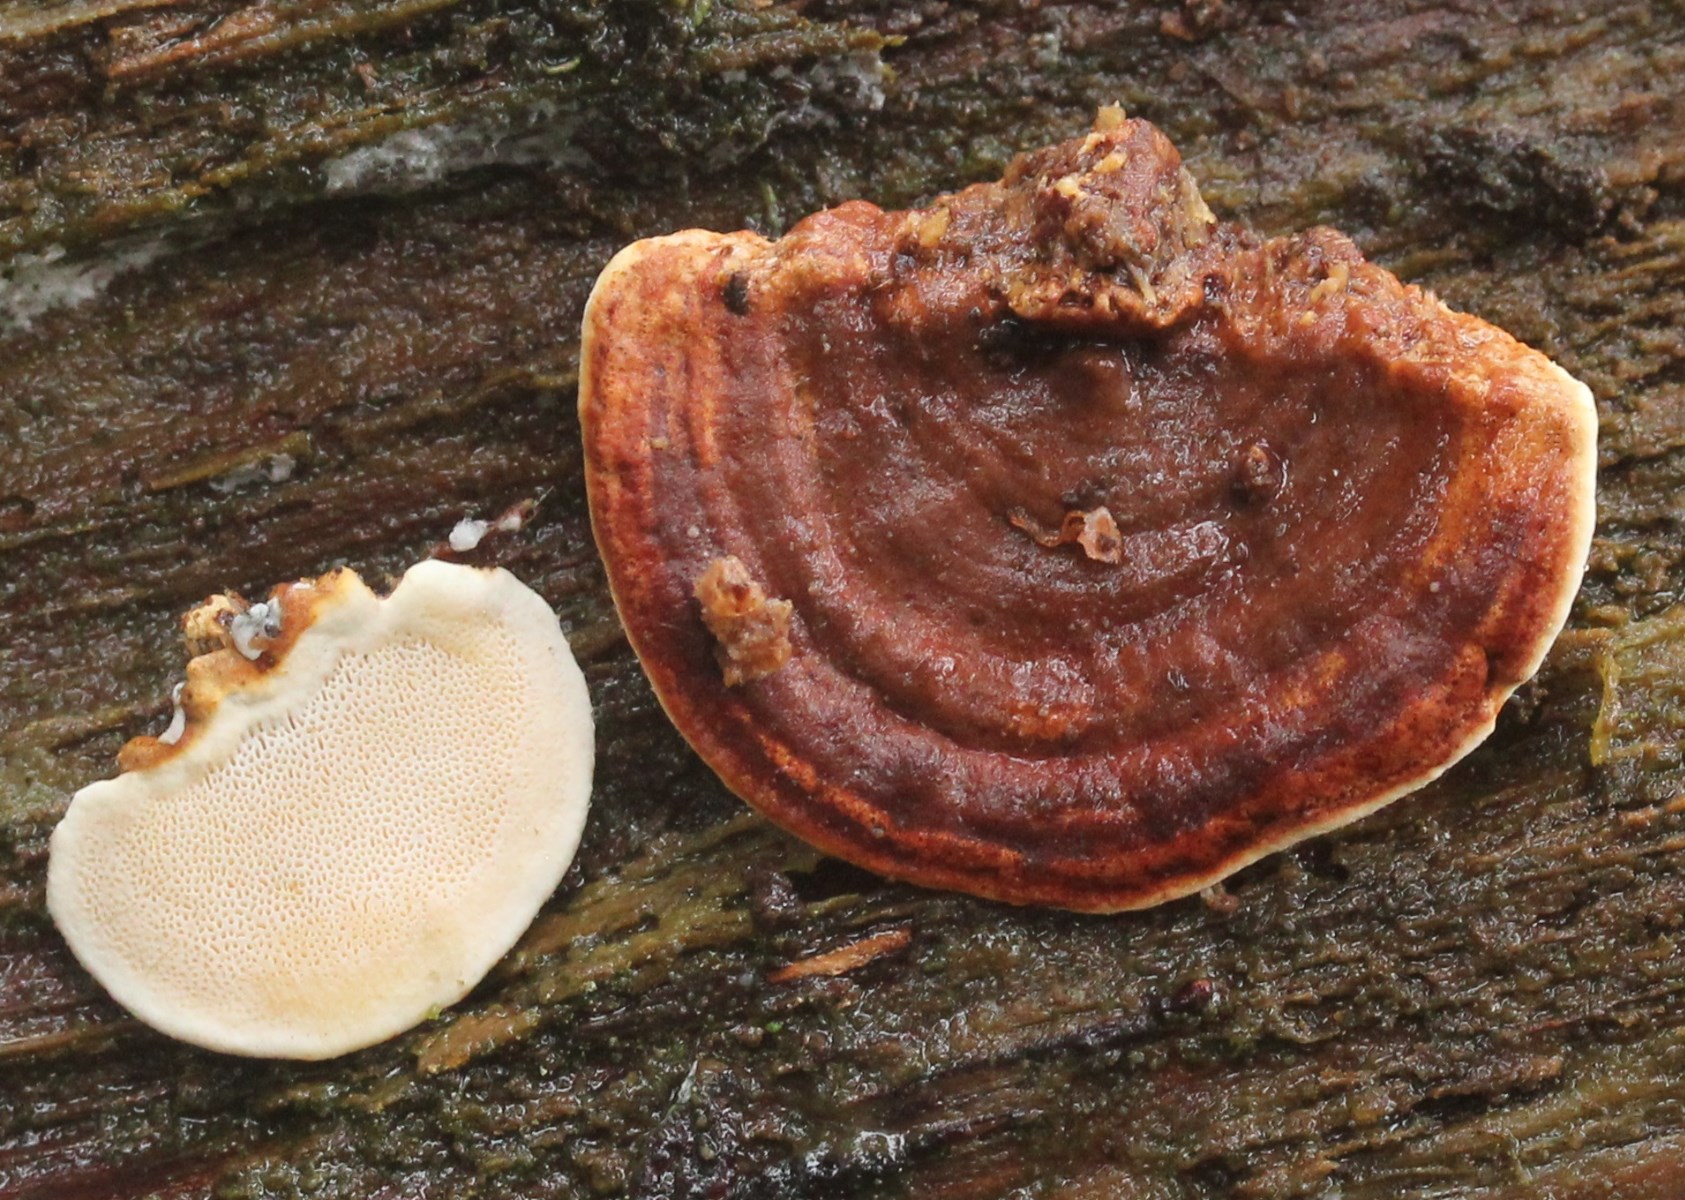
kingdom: Fungi
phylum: Basidiomycota
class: Agaricomycetes
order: Russulales
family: Bondarzewiaceae
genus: Heterobasidion
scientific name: Heterobasidion parviporum
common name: småporet rodfordærver
